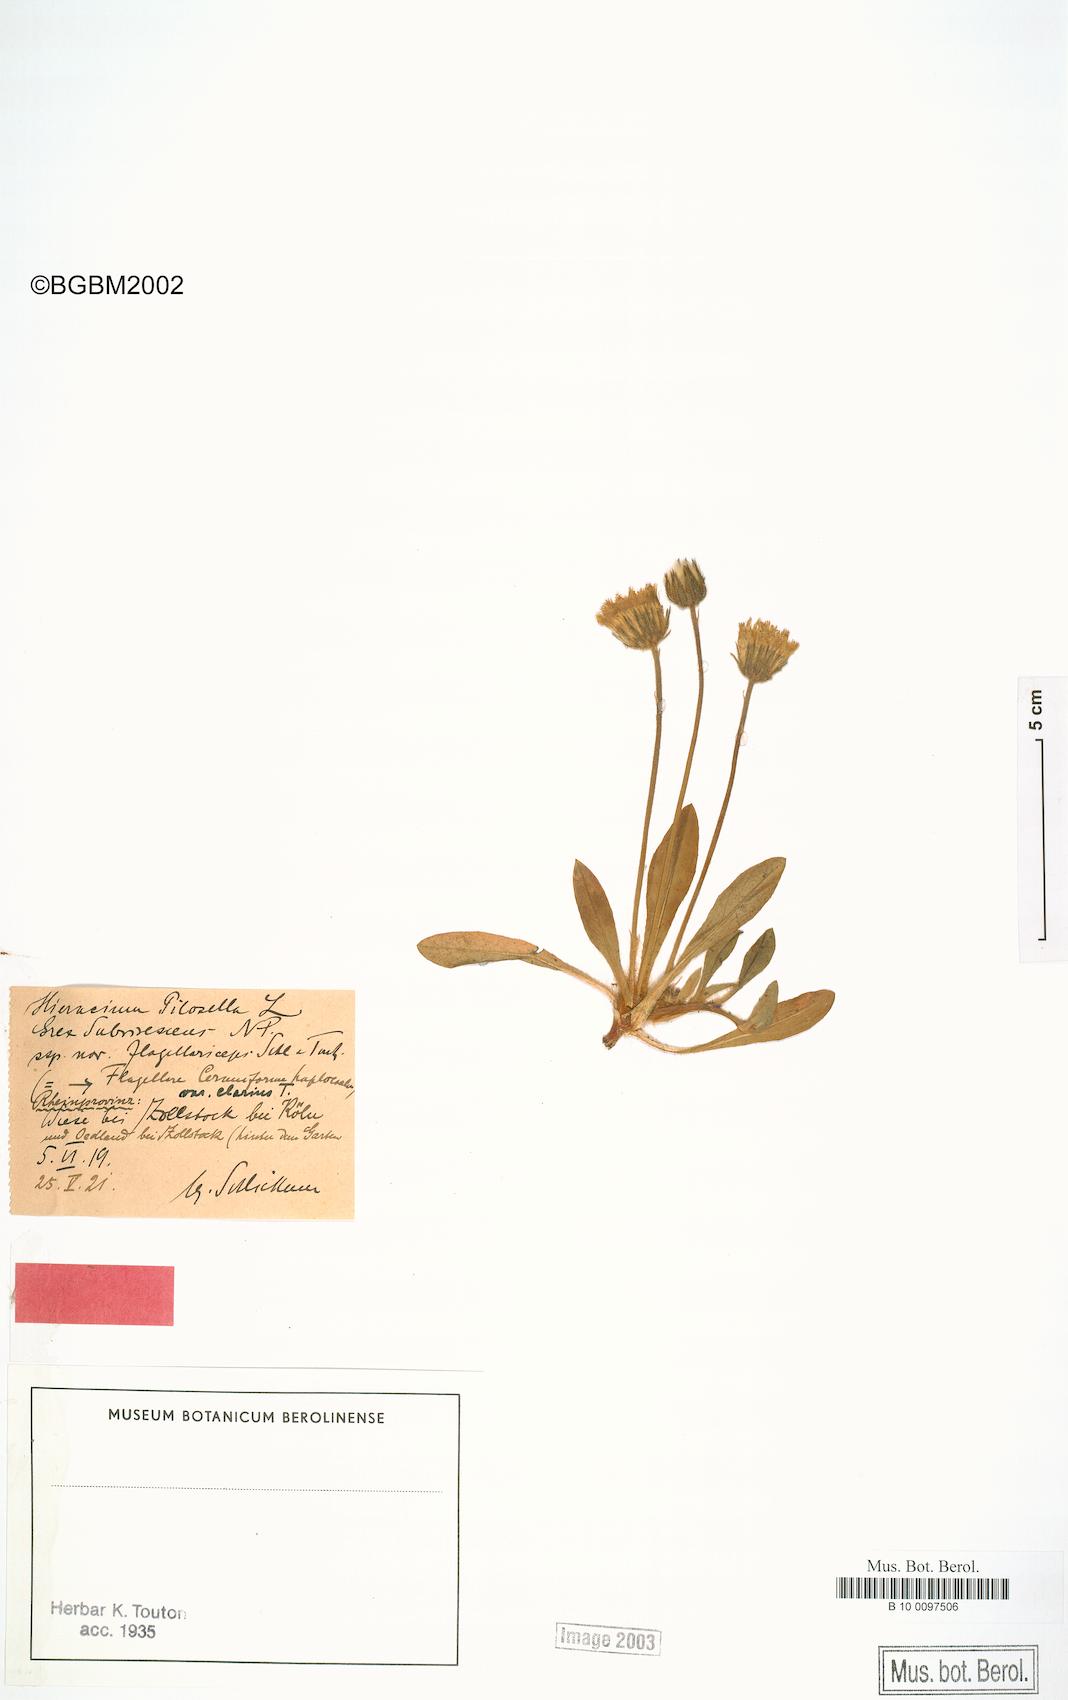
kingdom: Plantae
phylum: Tracheophyta
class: Magnoliopsida
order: Asterales
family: Asteraceae
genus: Pilosella
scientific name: Pilosella officinarum
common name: Mouse-ear hawkweed
